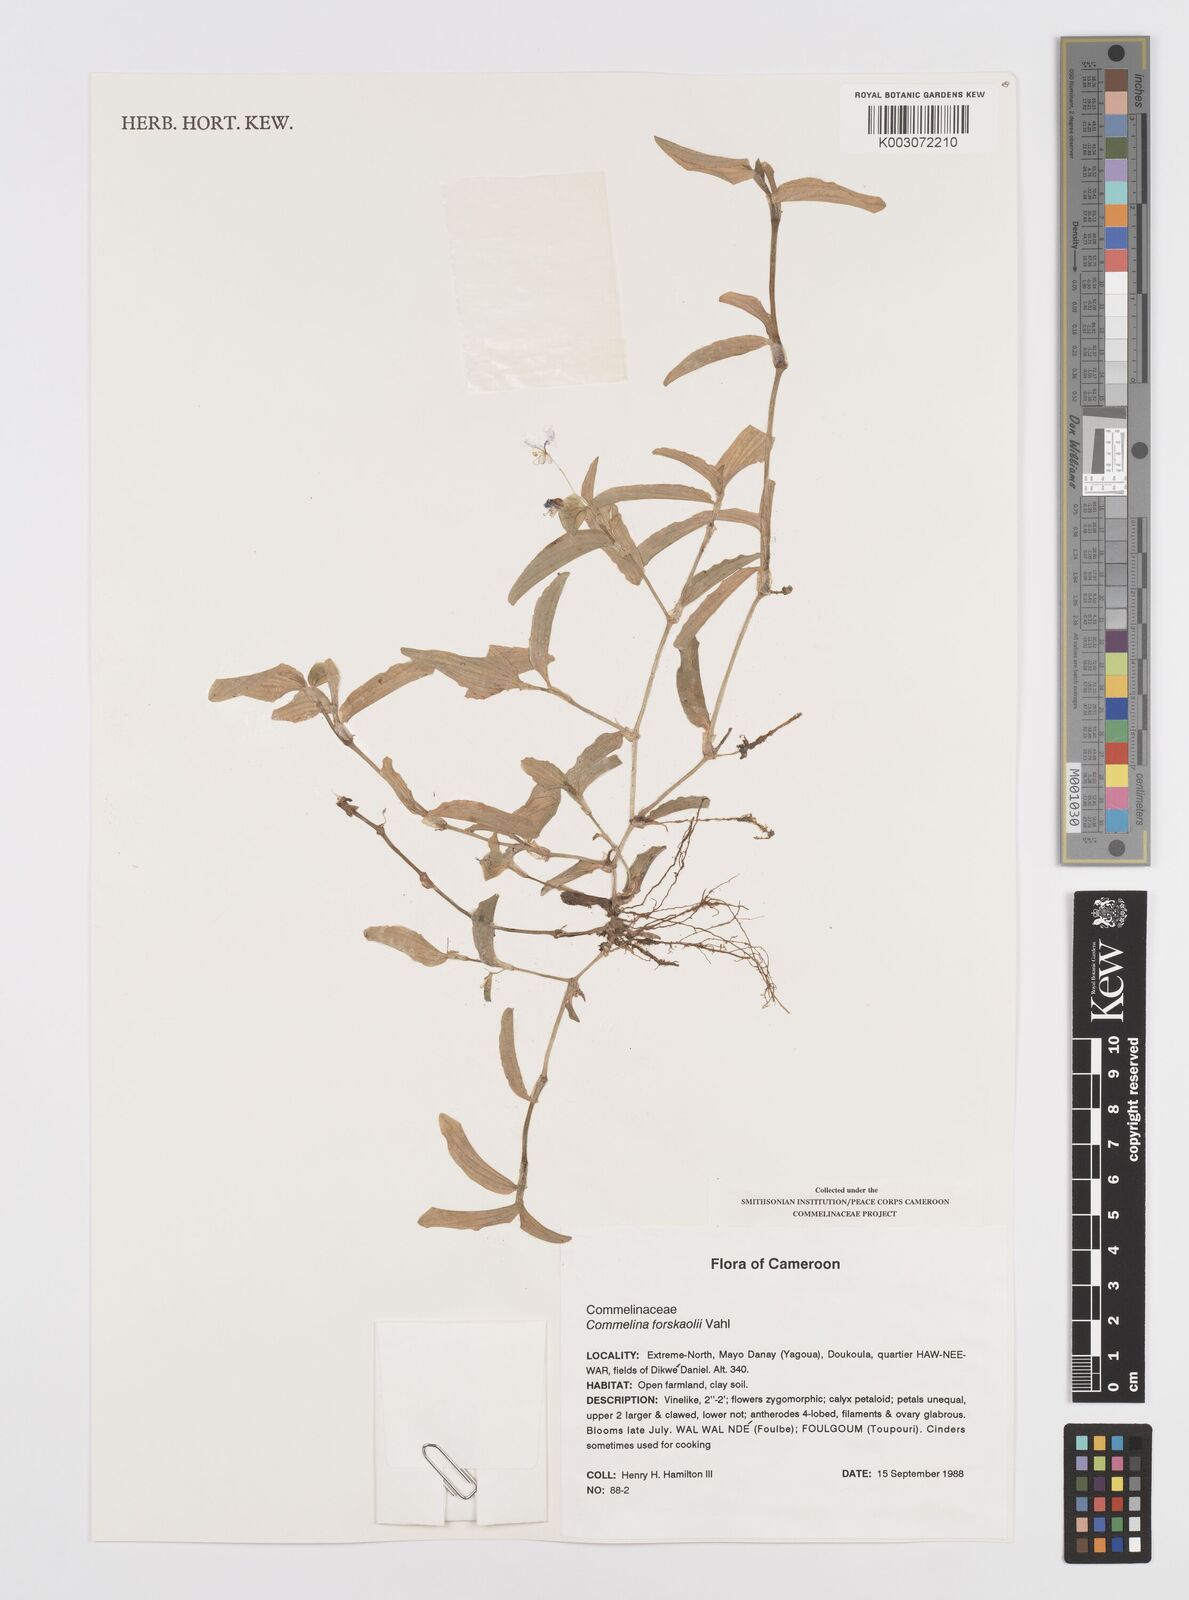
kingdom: Plantae
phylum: Tracheophyta
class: Liliopsida
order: Commelinales
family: Commelinaceae
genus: Commelina
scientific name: Commelina forskaolii
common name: Rat's ear
